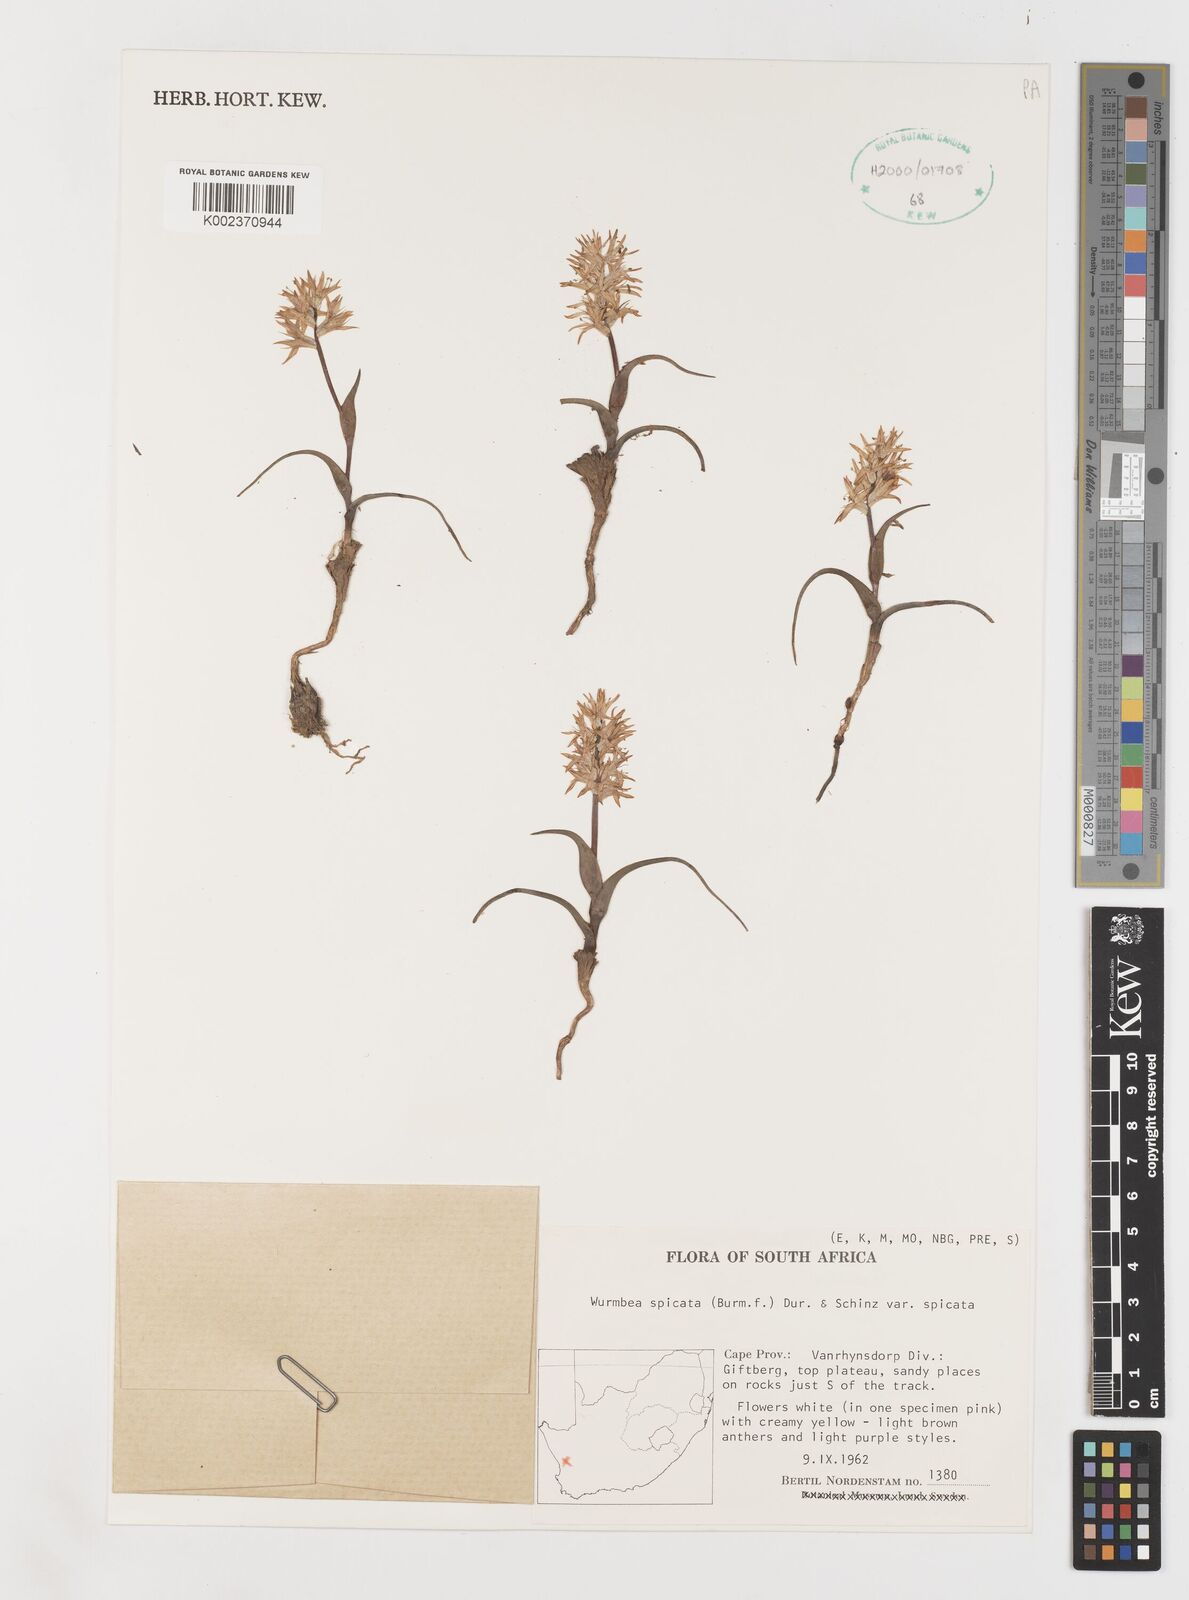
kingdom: Plantae
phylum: Tracheophyta
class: Liliopsida
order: Liliales
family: Colchicaceae
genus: Wurmbea
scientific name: Wurmbea spicata
